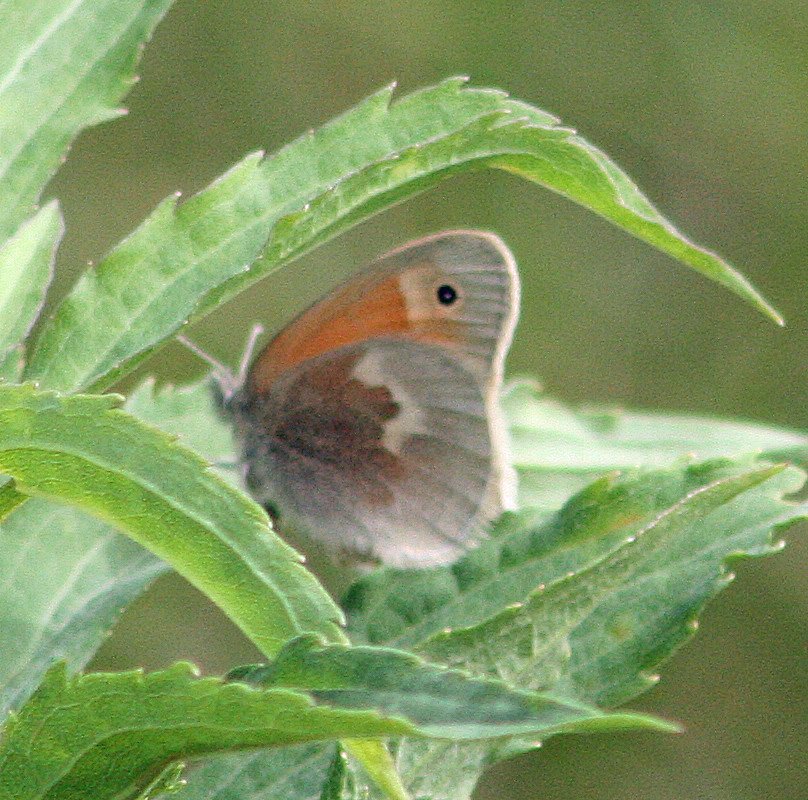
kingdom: Animalia
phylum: Arthropoda
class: Insecta
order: Lepidoptera
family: Nymphalidae
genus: Coenonympha
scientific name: Coenonympha tullia
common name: Large Heath
